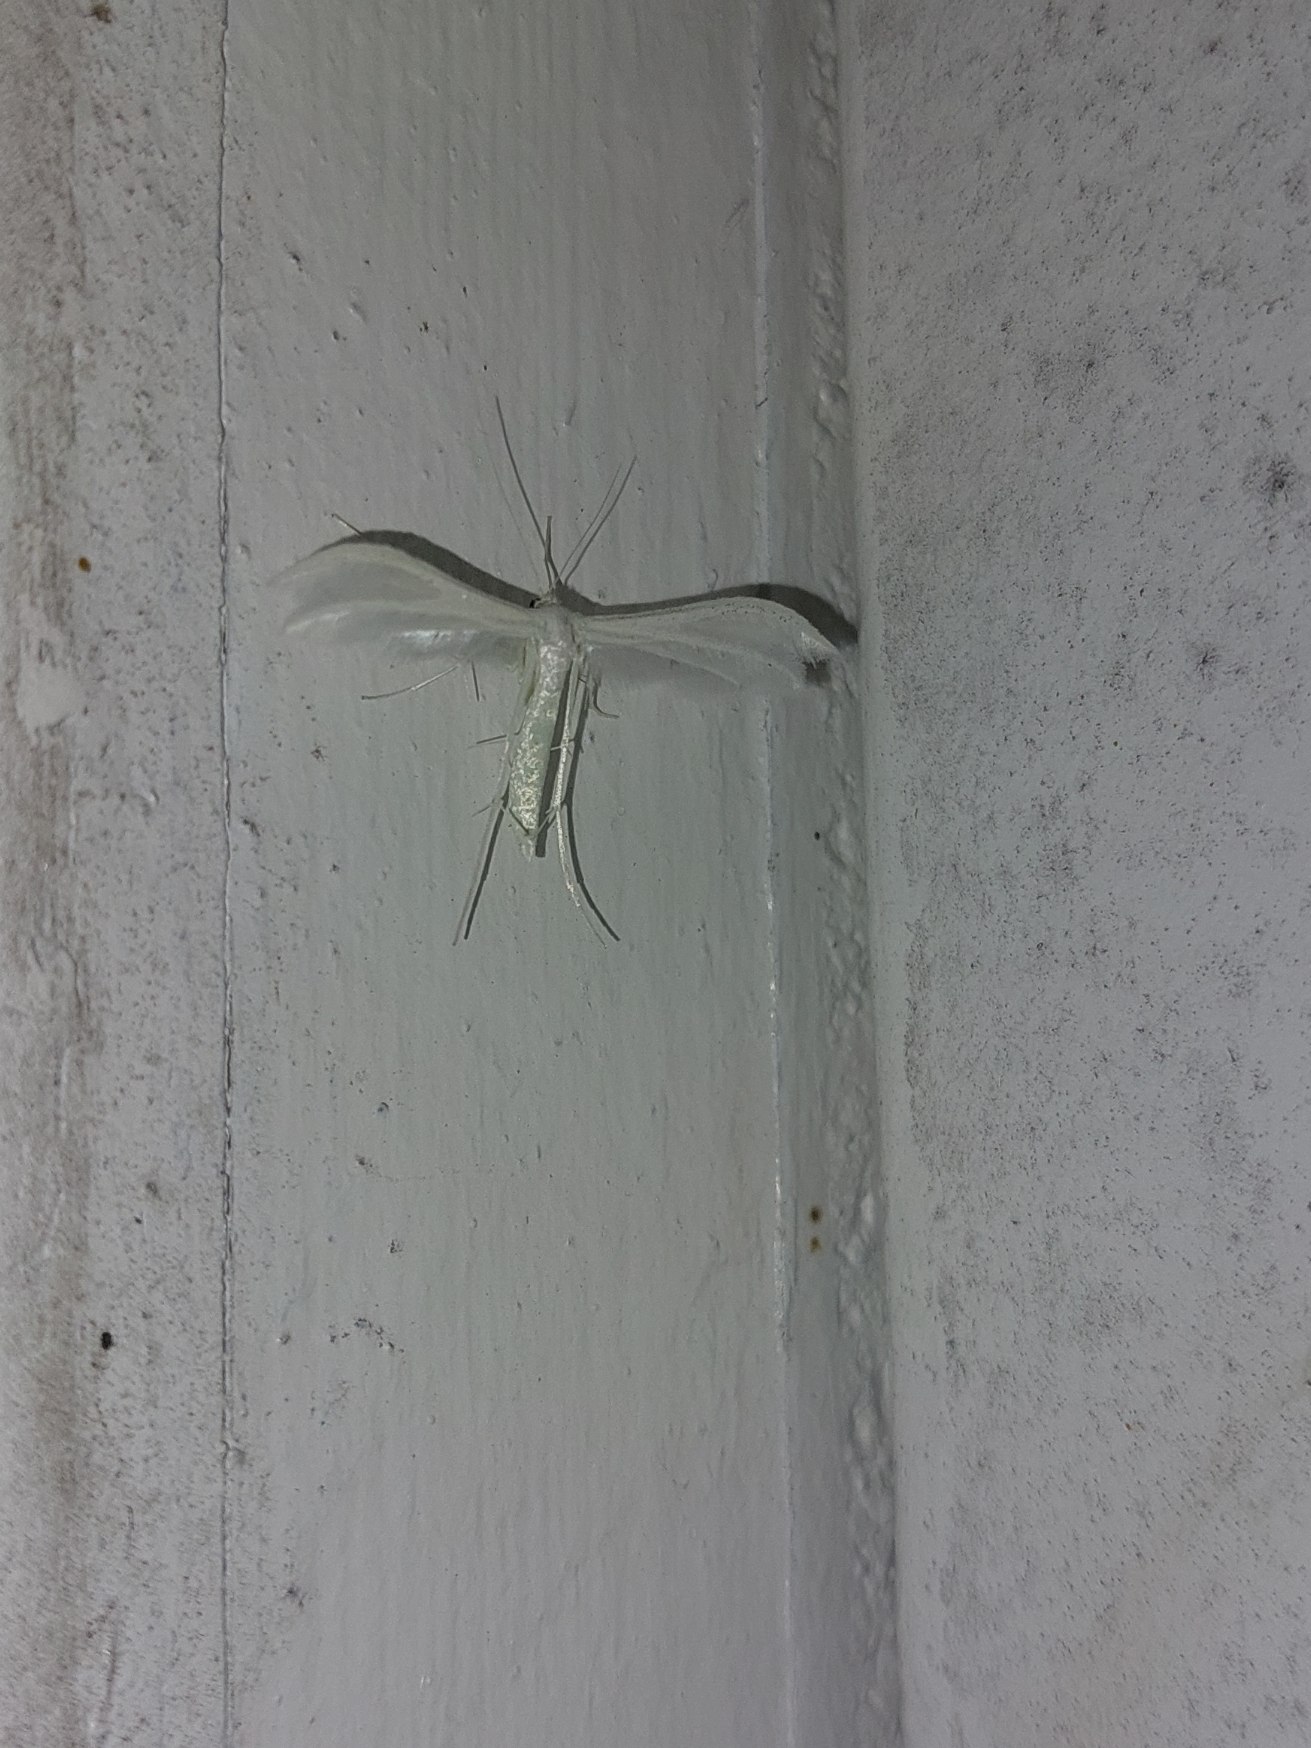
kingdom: Animalia
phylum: Arthropoda
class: Insecta
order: Lepidoptera
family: Pterophoridae
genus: Pterophorus
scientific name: Pterophorus pentadactyla
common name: Hvidt fjermøl
